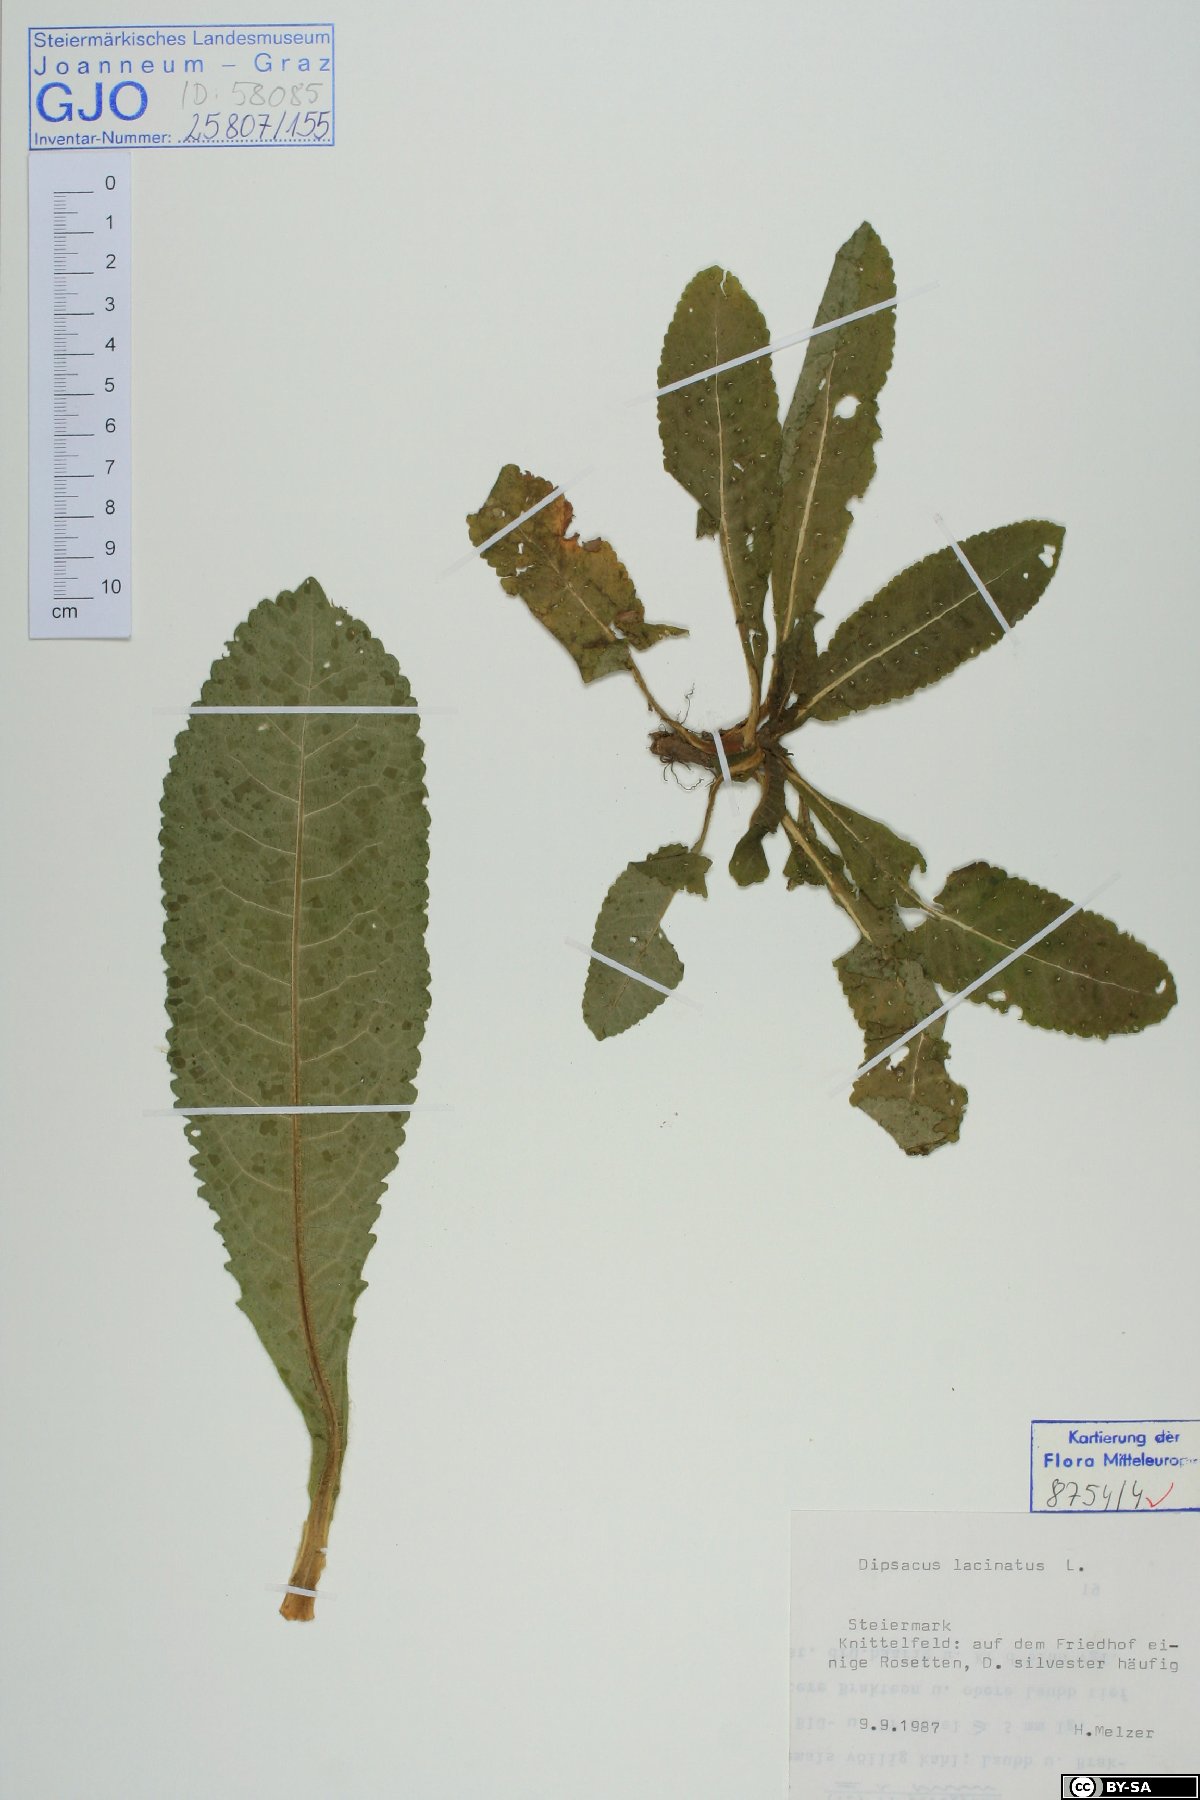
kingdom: Plantae
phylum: Tracheophyta
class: Magnoliopsida
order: Dipsacales
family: Caprifoliaceae
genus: Dipsacus
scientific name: Dipsacus laciniatus
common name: Cut-leaved teasel
